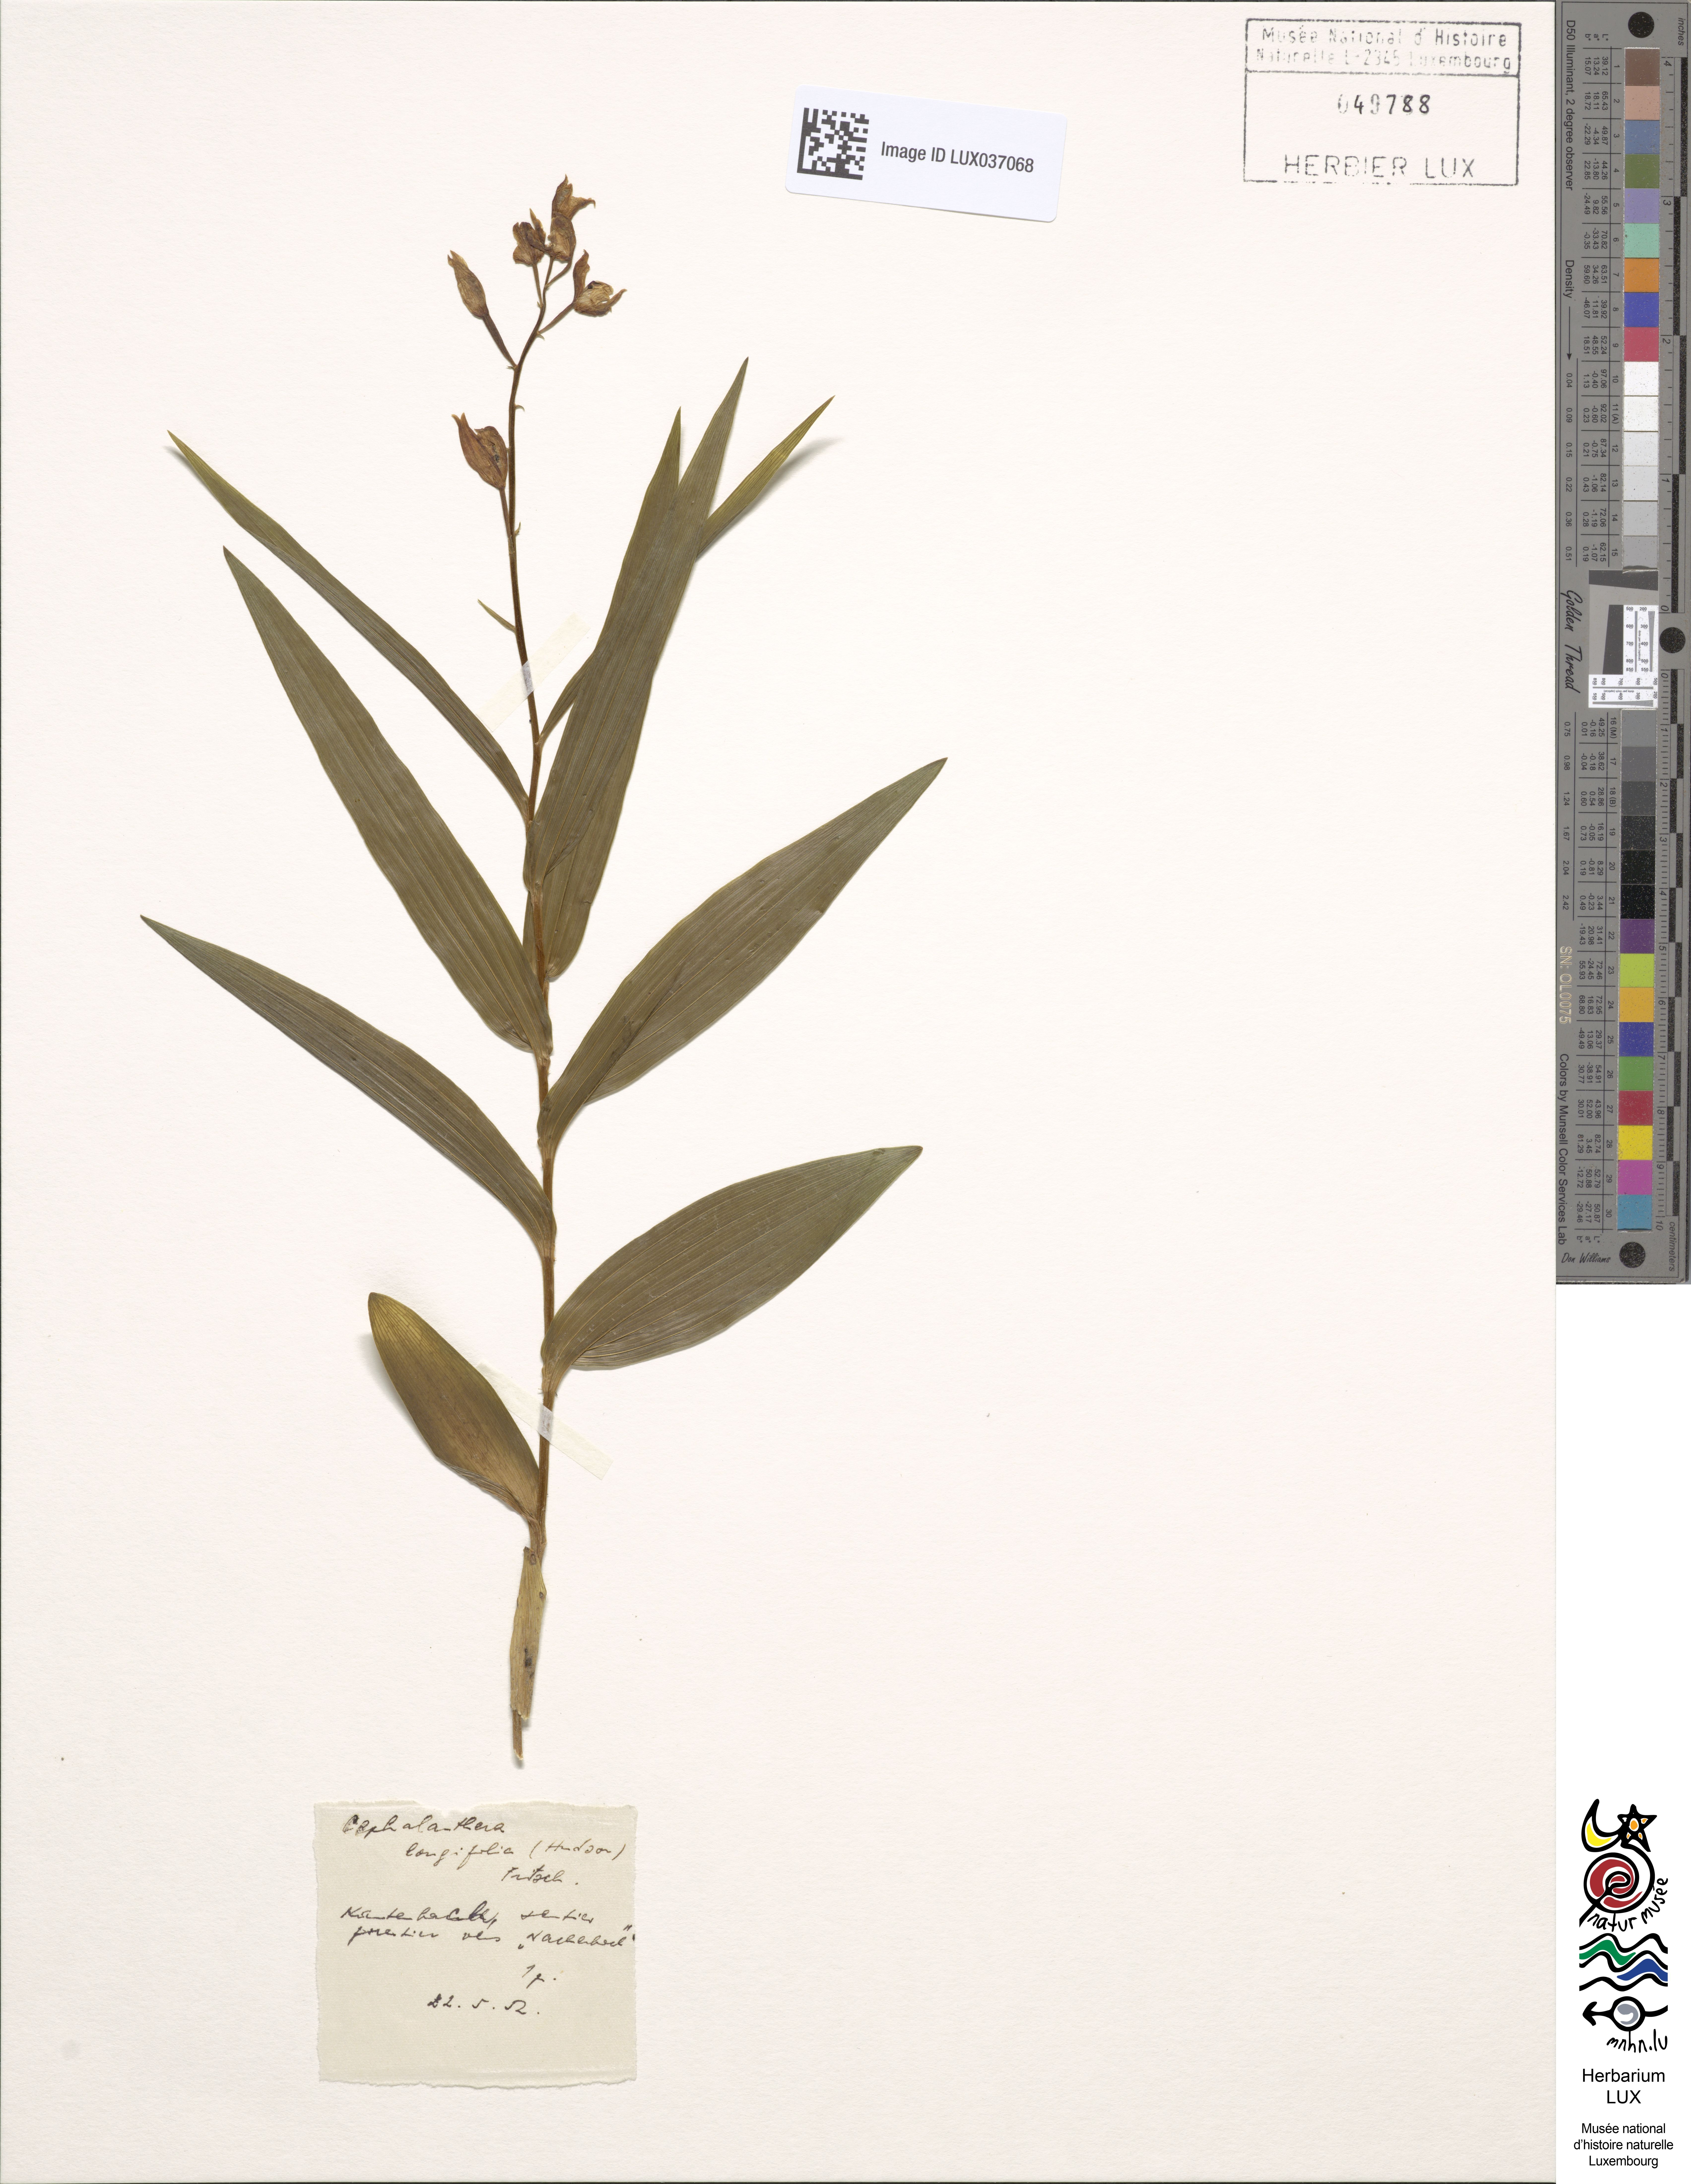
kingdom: Plantae
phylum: Tracheophyta
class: Liliopsida
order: Asparagales
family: Orchidaceae
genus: Cephalanthera
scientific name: Cephalanthera longifolia
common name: Narrow-leaved helleborine
